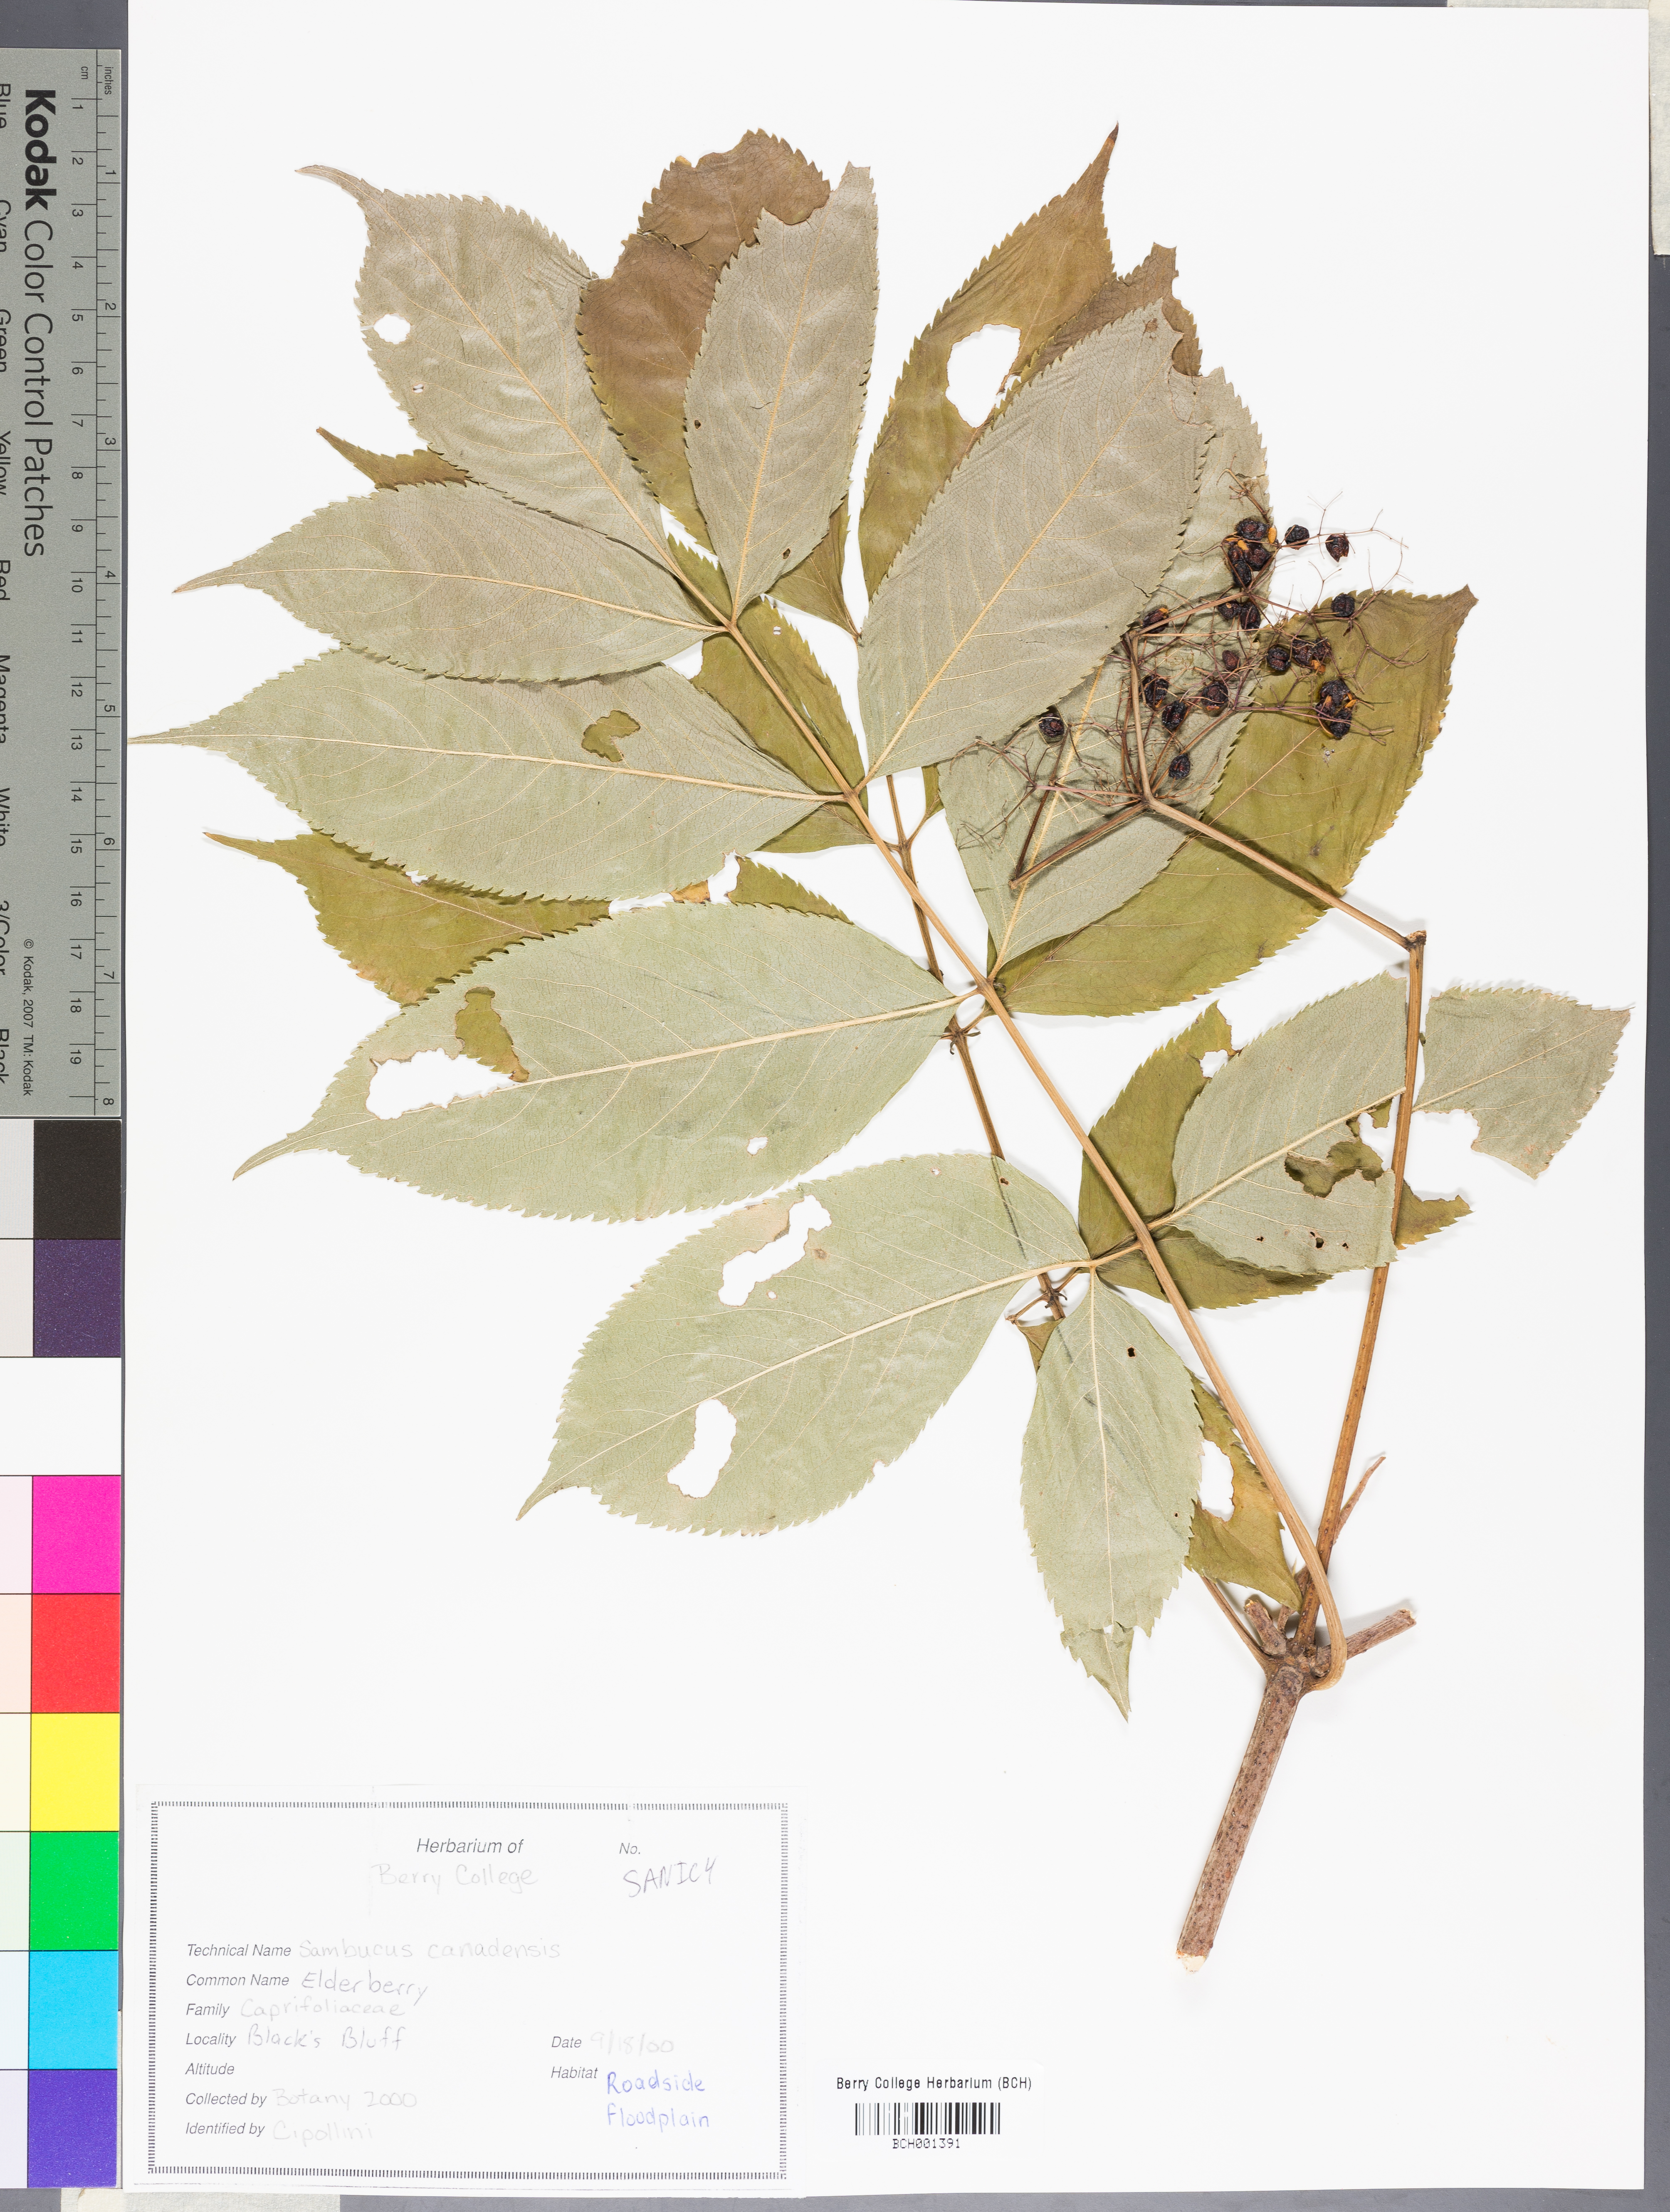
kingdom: Plantae
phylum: Tracheophyta
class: Magnoliopsida
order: Dipsacales
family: Viburnaceae
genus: Sambucus
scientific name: Sambucus canadensis
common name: American elder
